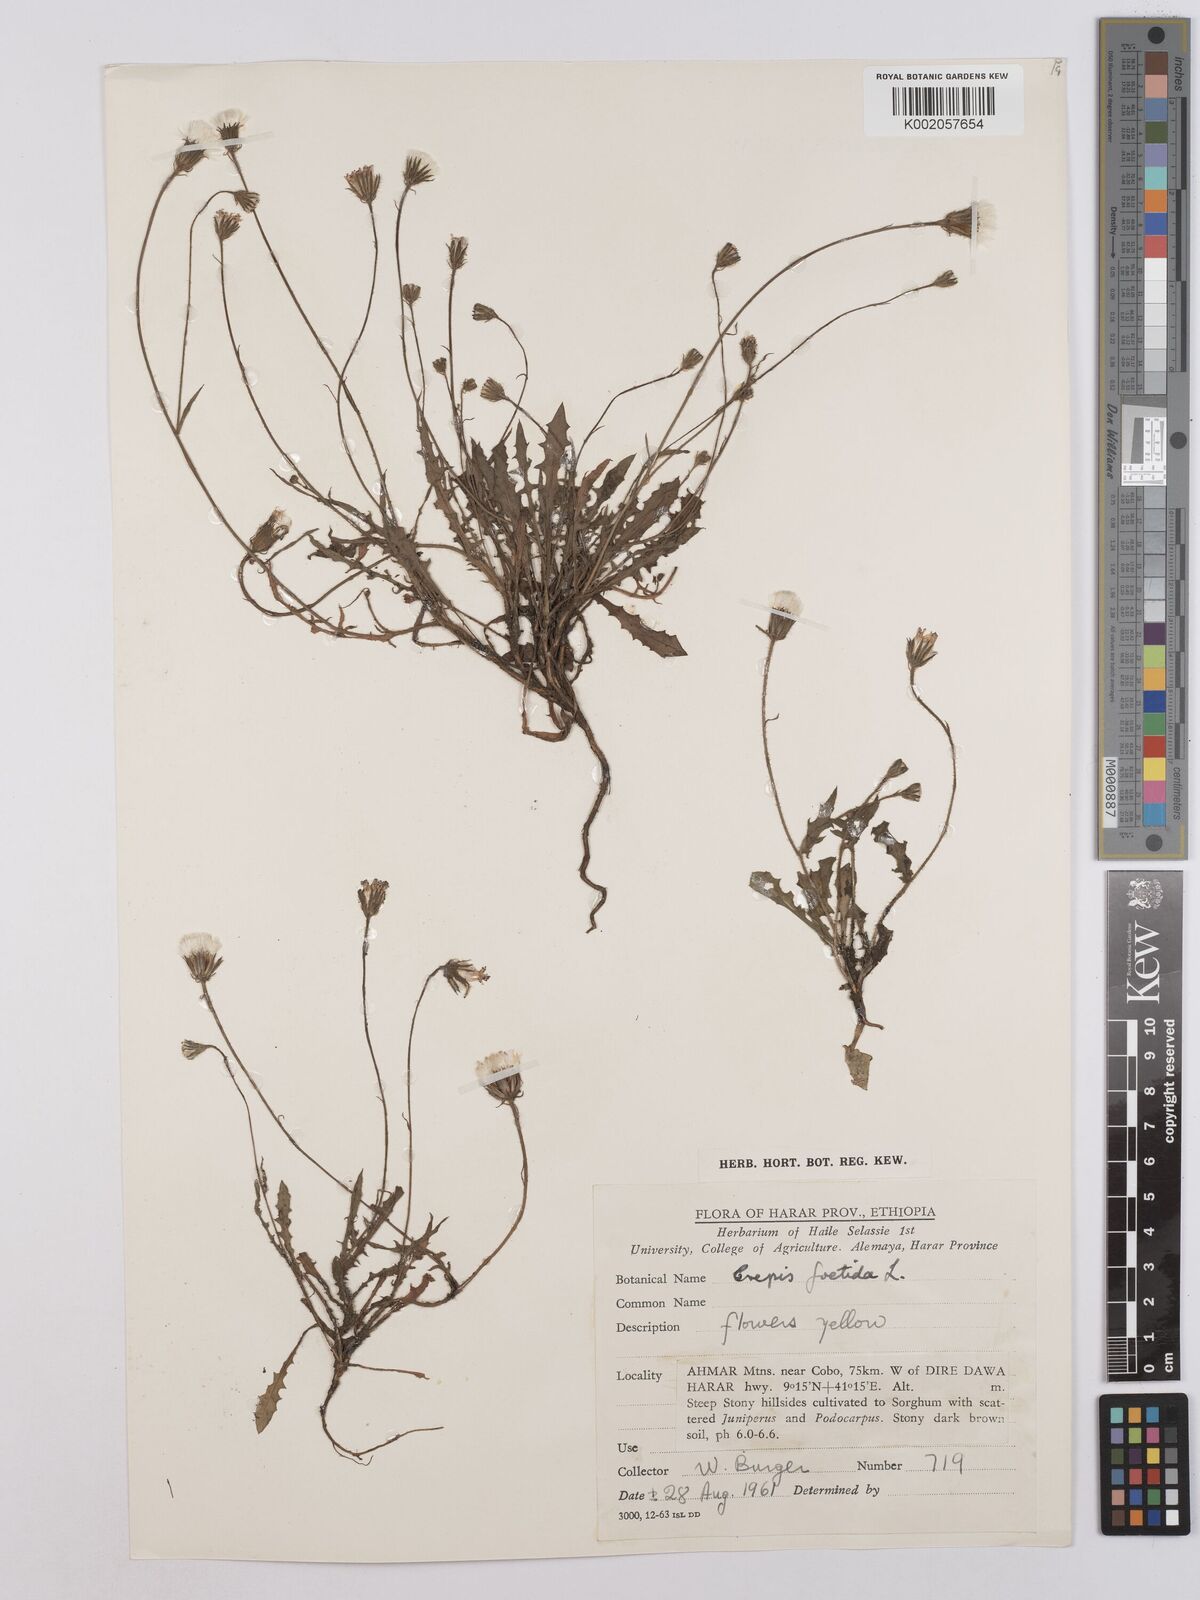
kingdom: Plantae
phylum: Tracheophyta
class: Magnoliopsida
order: Asterales
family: Asteraceae
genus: Crepis
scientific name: Crepis foetida
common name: Stinking hawk's-beard
